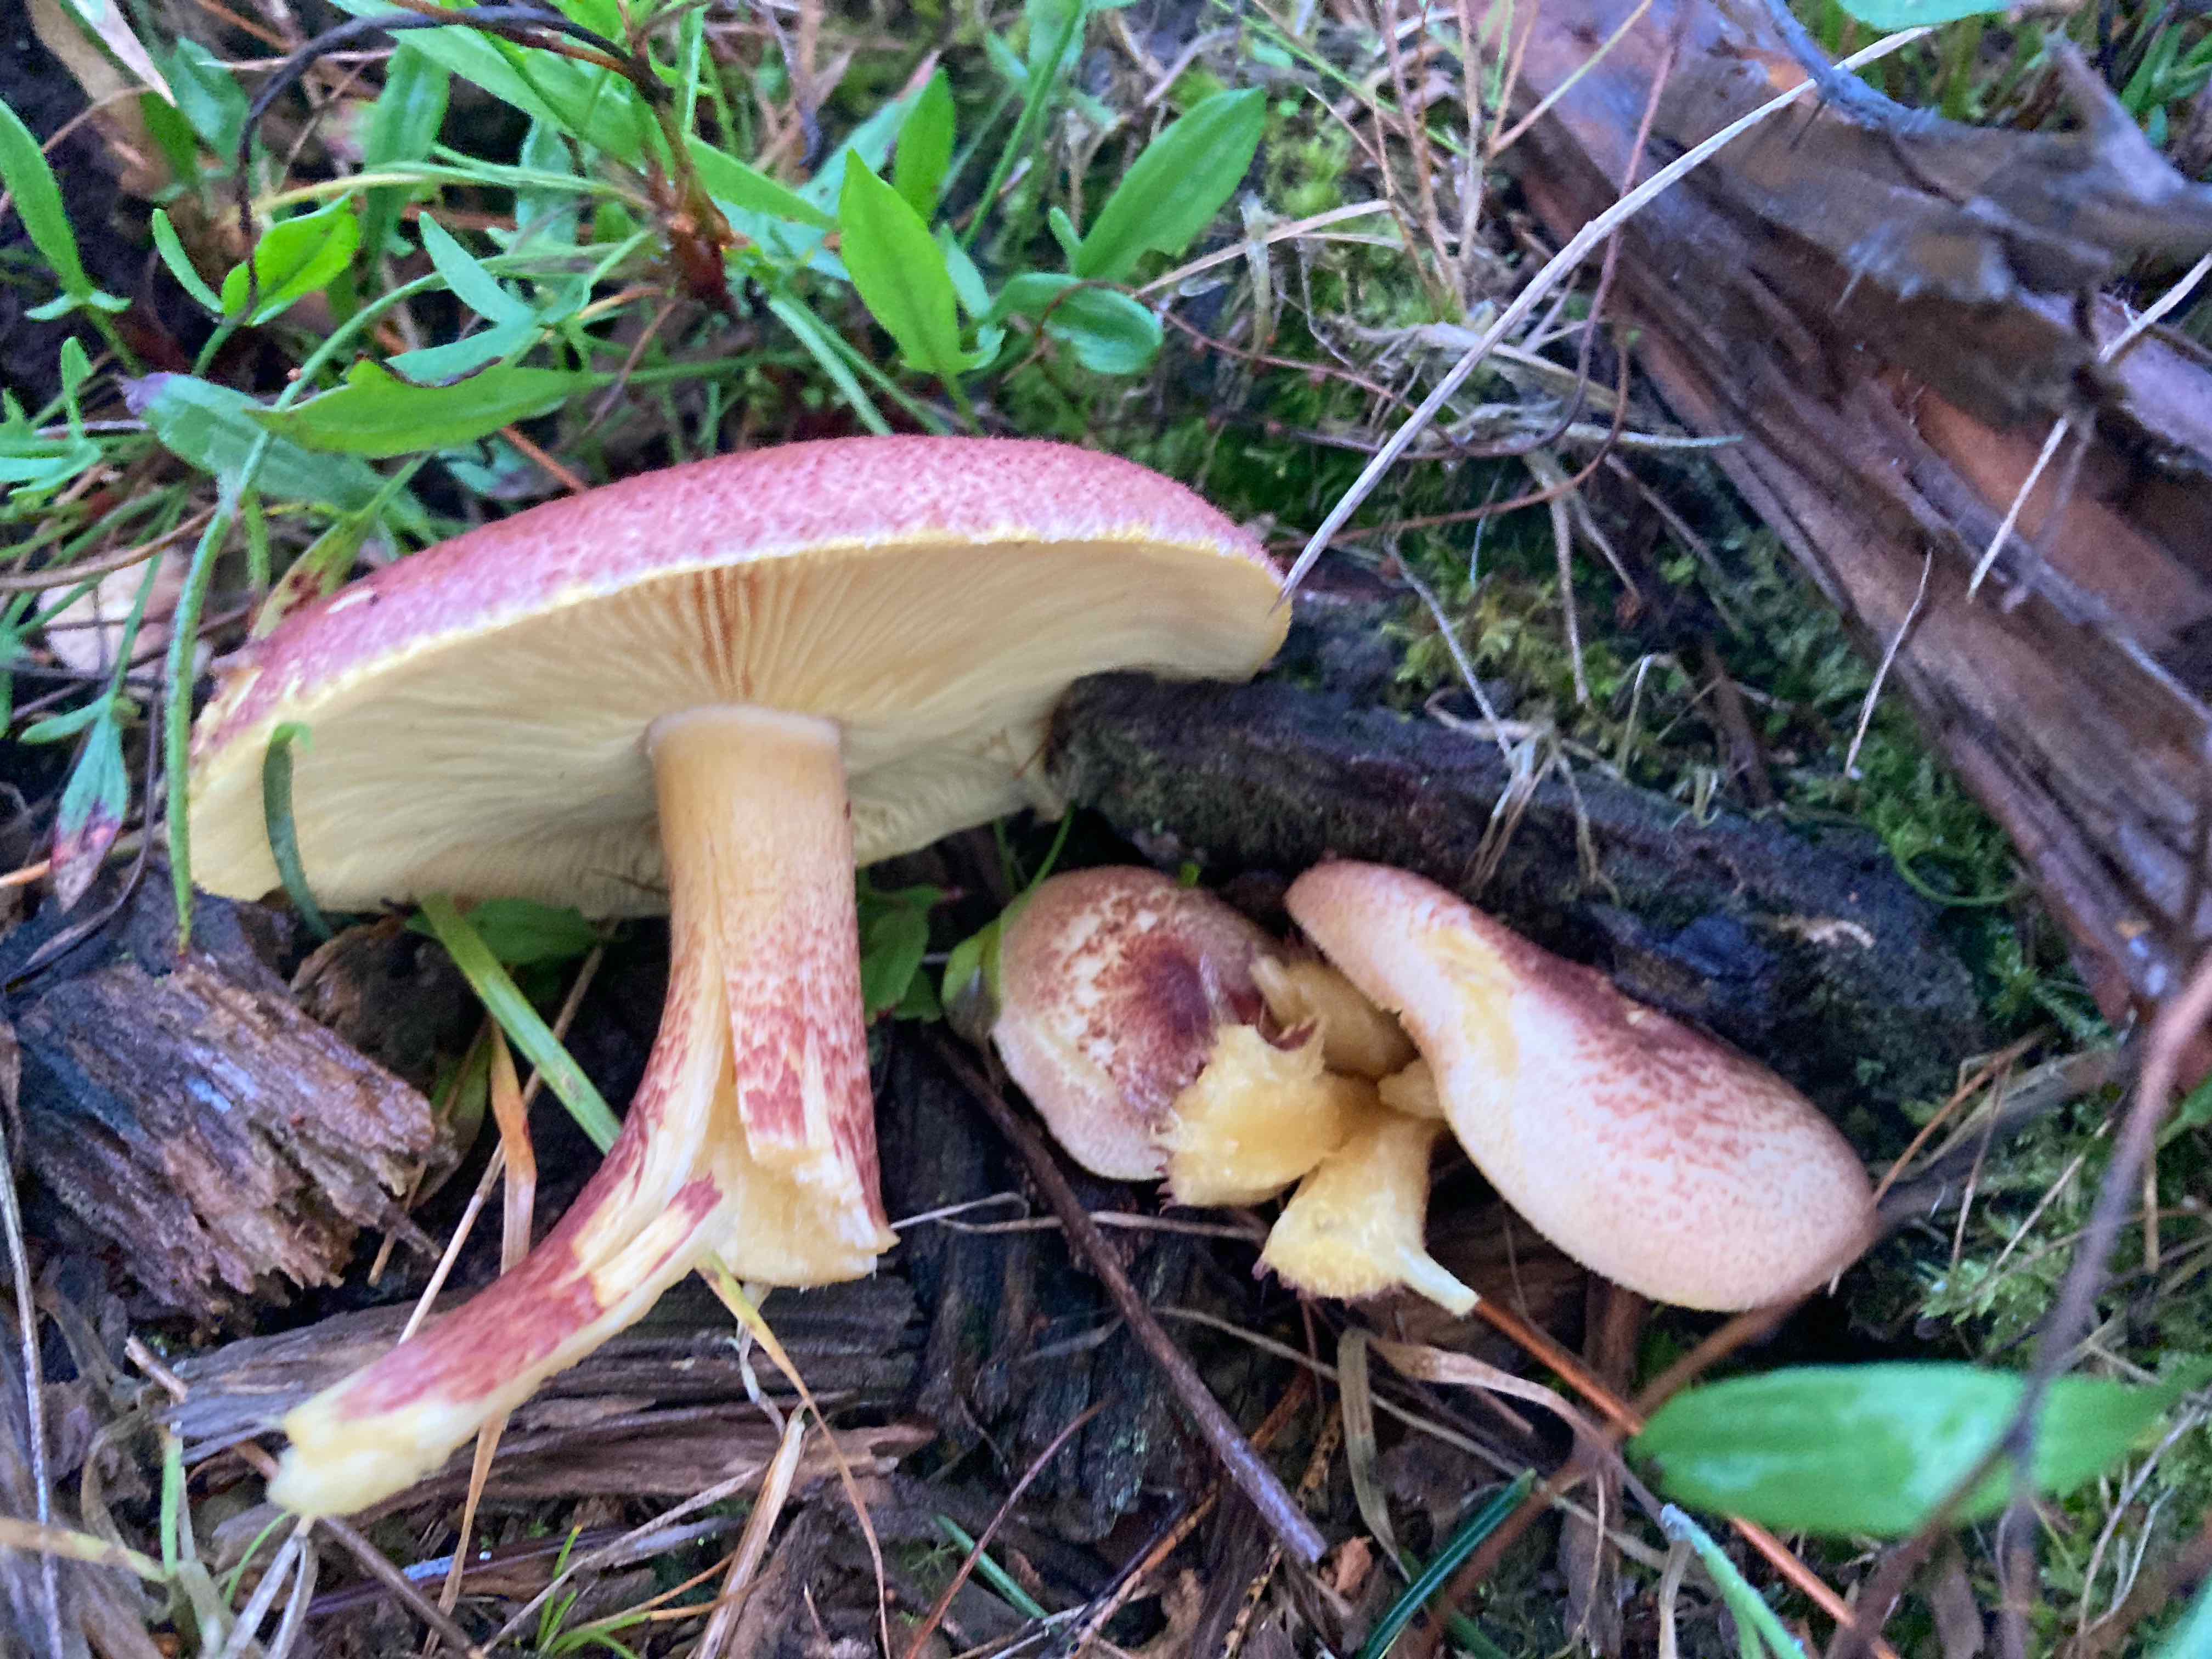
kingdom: Fungi
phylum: Basidiomycota
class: Agaricomycetes
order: Agaricales
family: Tricholomataceae
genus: Tricholomopsis
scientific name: Tricholomopsis rutilans
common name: purpur-væbnerhat
